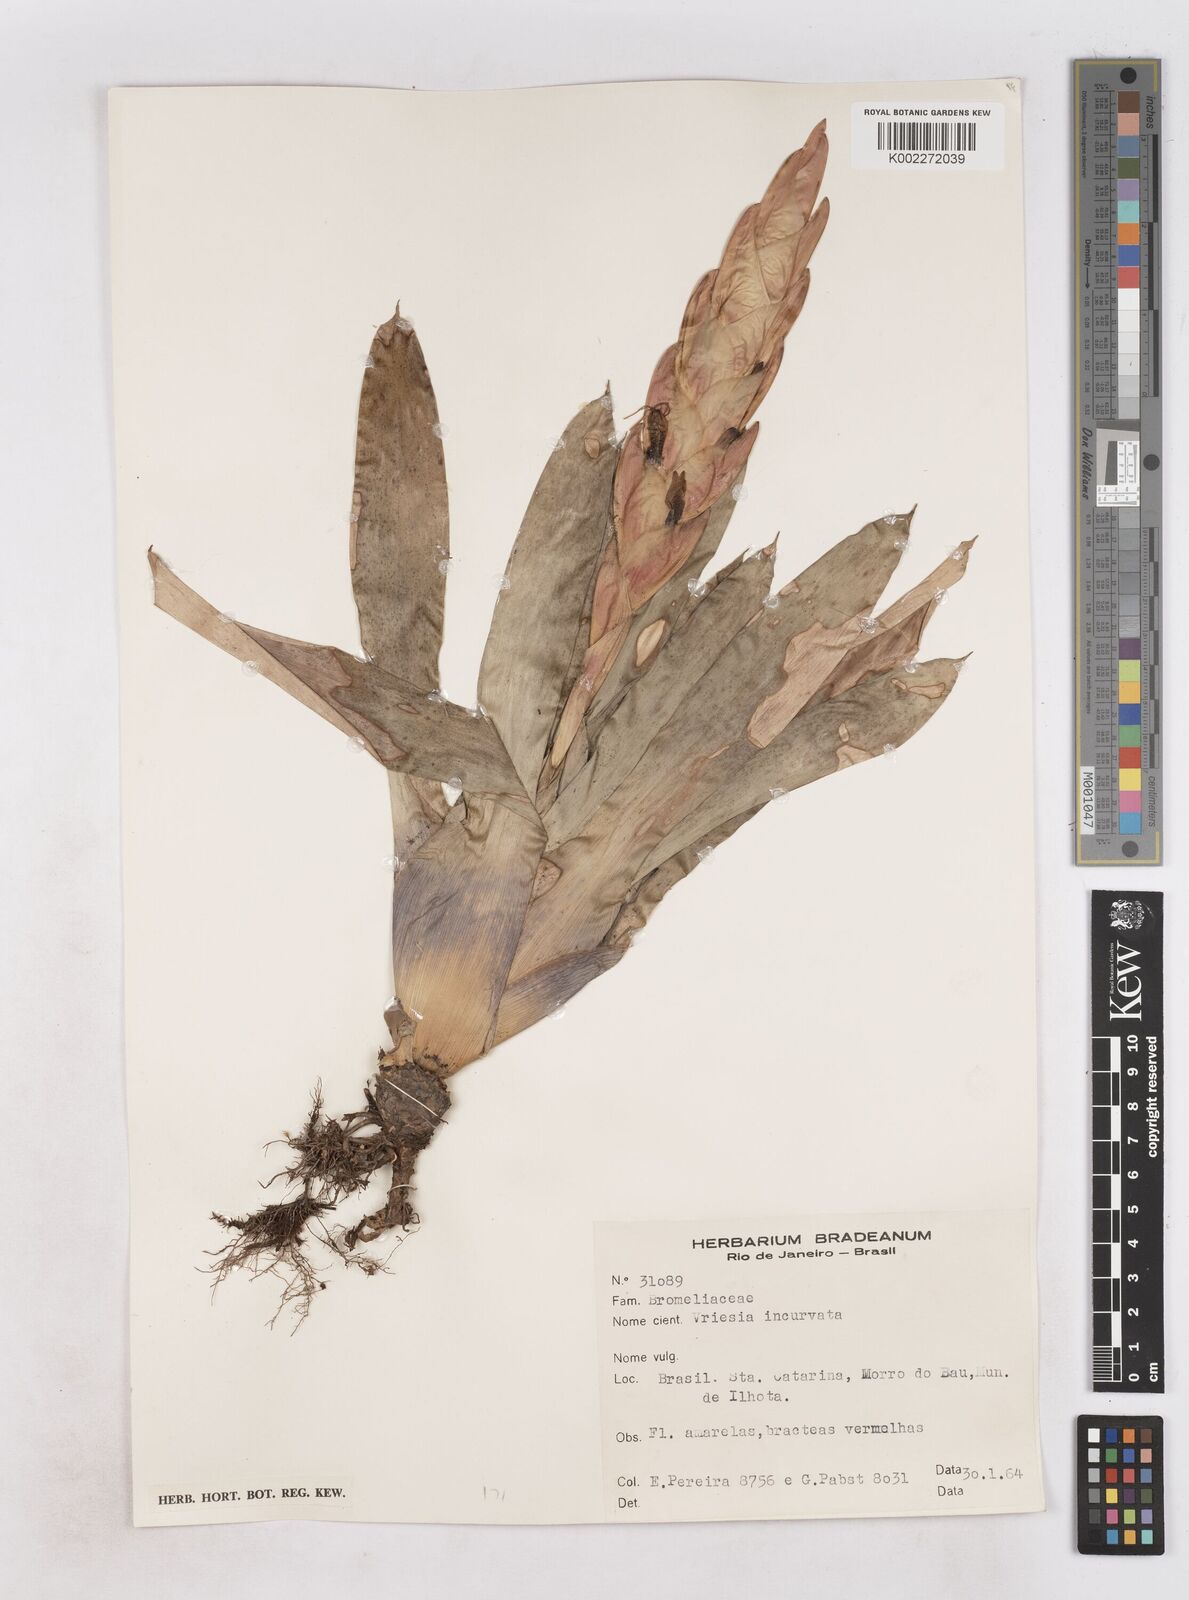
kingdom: Plantae
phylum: Tracheophyta
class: Liliopsida
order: Poales
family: Bromeliaceae
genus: Vriesea
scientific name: Vriesea incurvata
